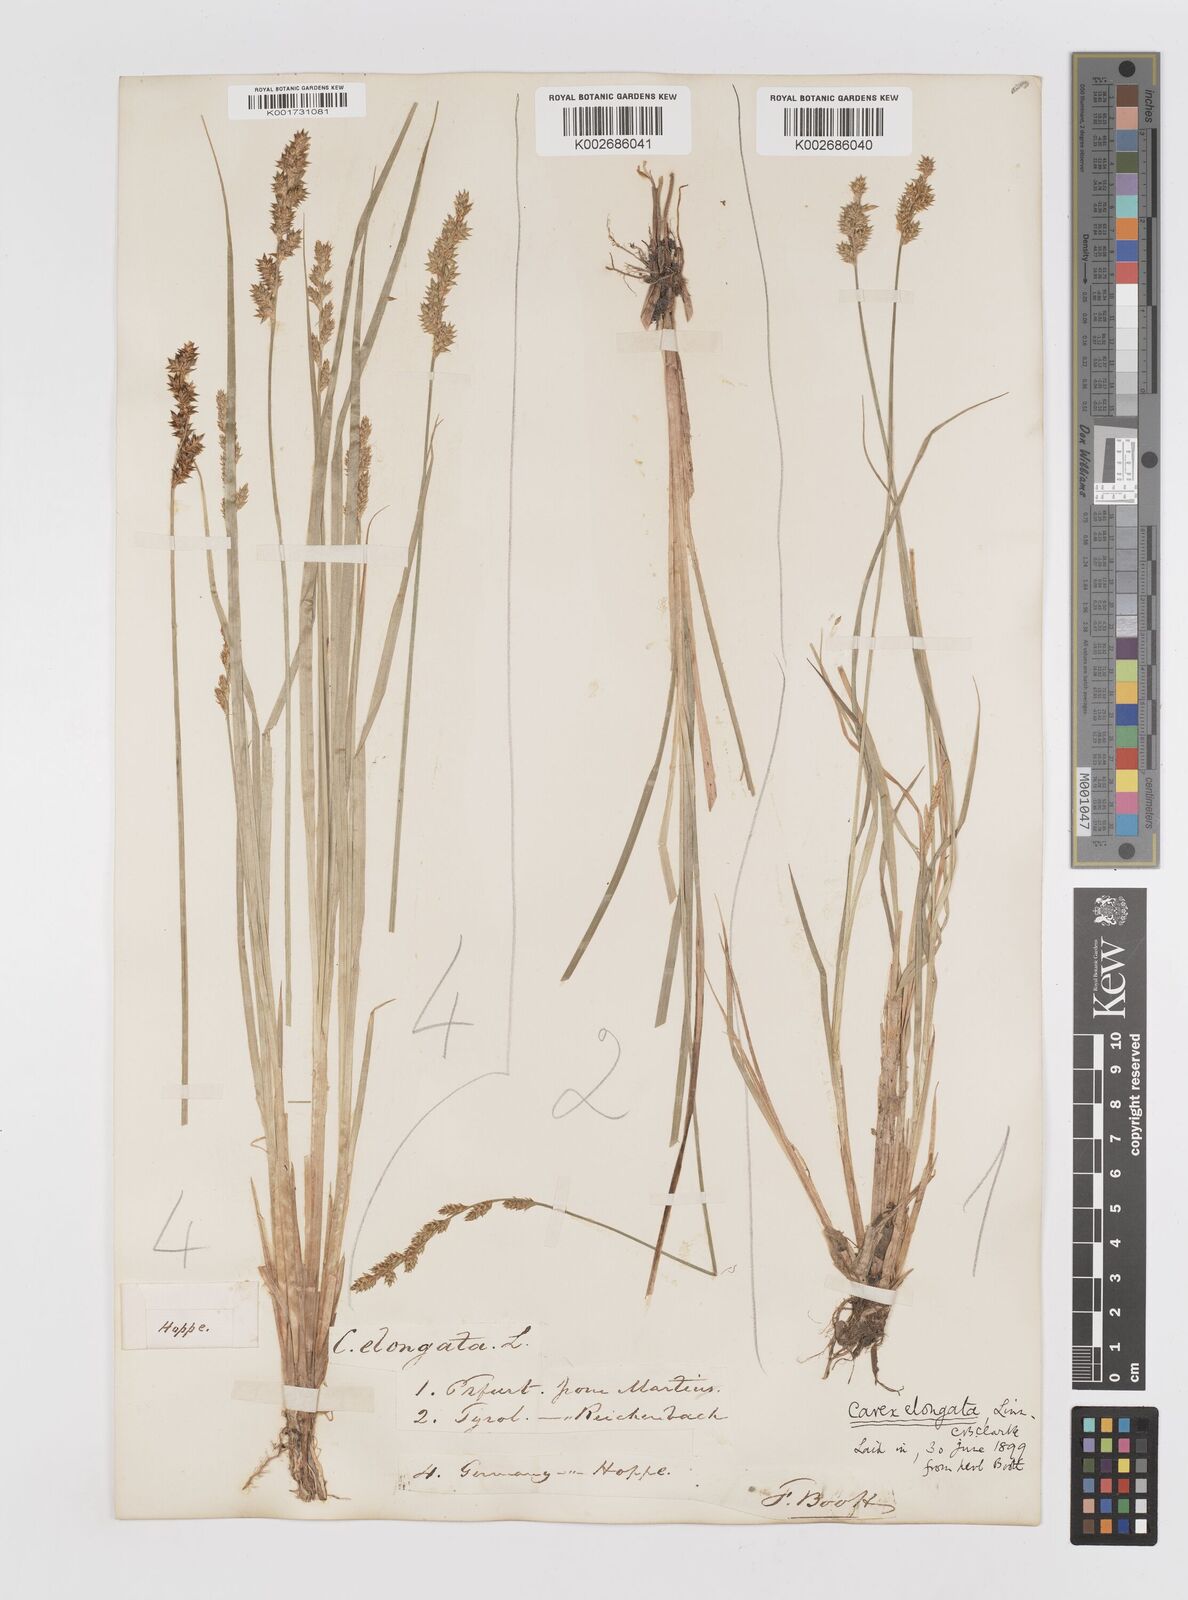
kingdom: Plantae
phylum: Tracheophyta
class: Liliopsida
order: Poales
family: Cyperaceae
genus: Carex
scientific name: Carex elongata
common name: Elongated sedge
